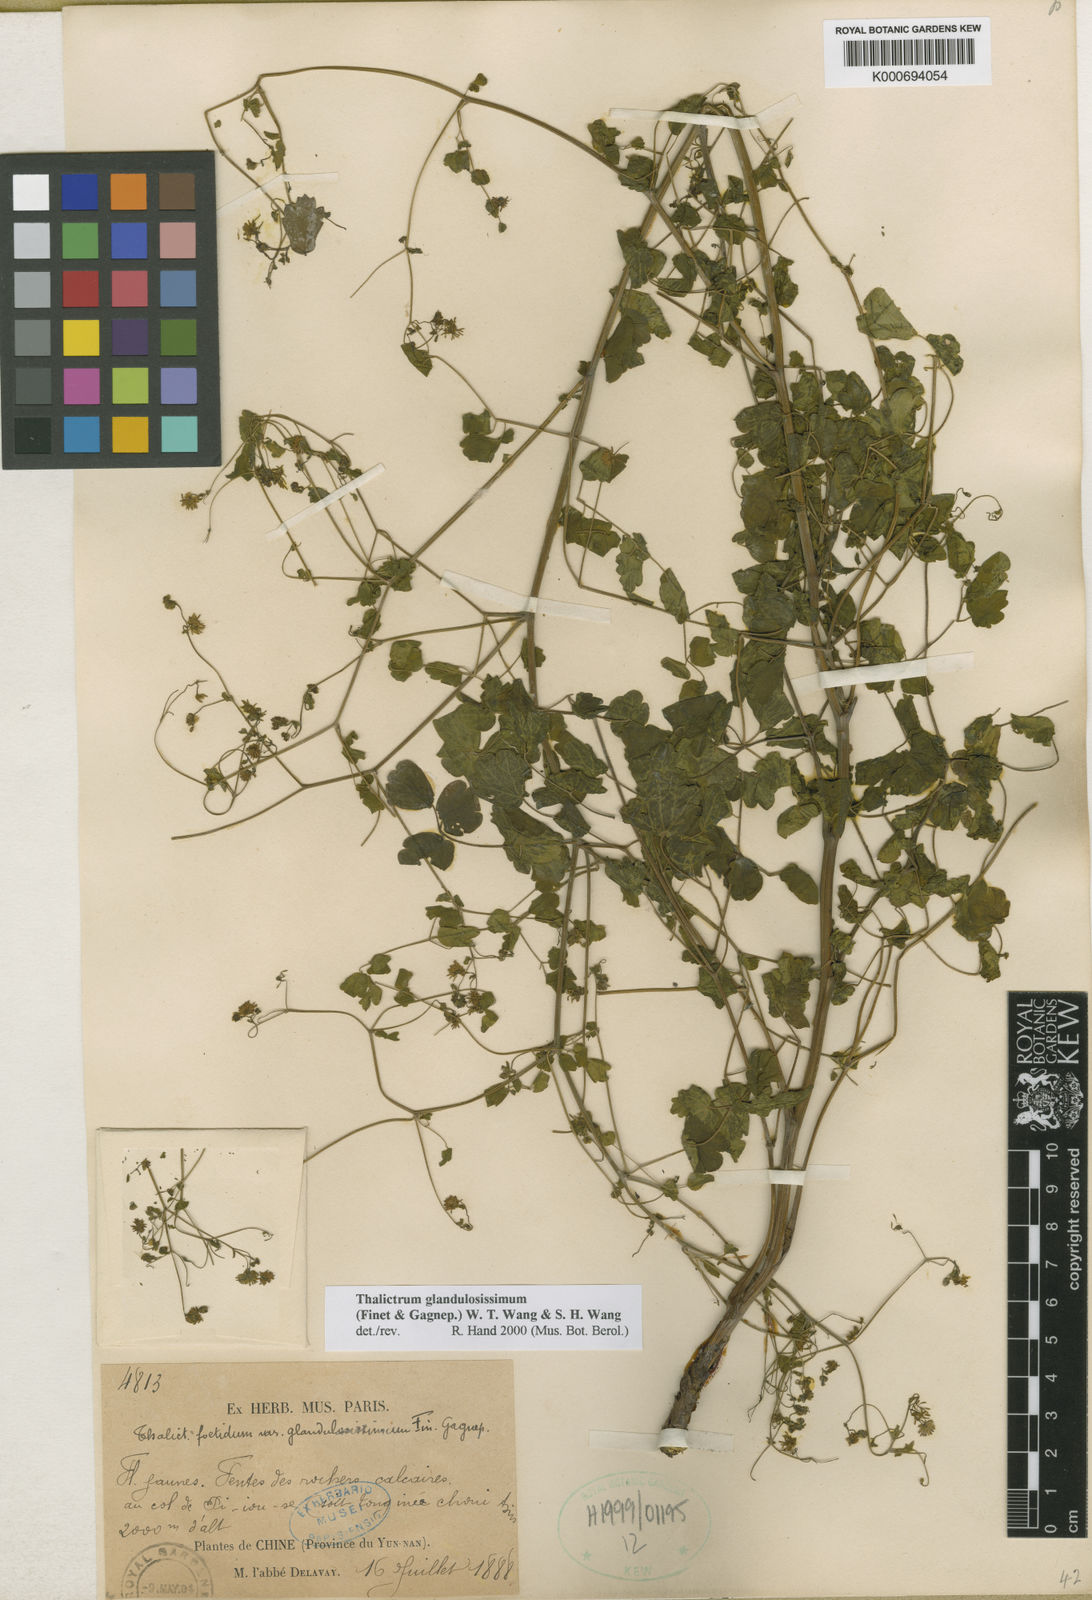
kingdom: Plantae
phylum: Tracheophyta
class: Magnoliopsida
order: Ranunculales
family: Ranunculaceae
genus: Thalictrum
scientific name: Thalictrum
